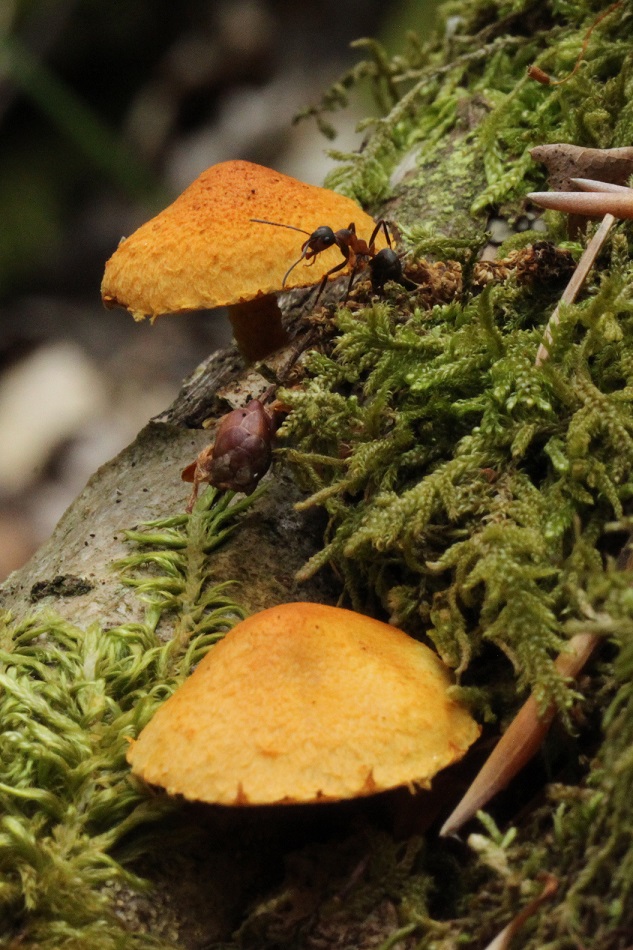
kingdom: Fungi
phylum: Basidiomycota
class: Agaricomycetes
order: Agaricales
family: Strophariaceae
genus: Pholiota
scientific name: Pholiota tuberculosa
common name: finskællet skælhat
